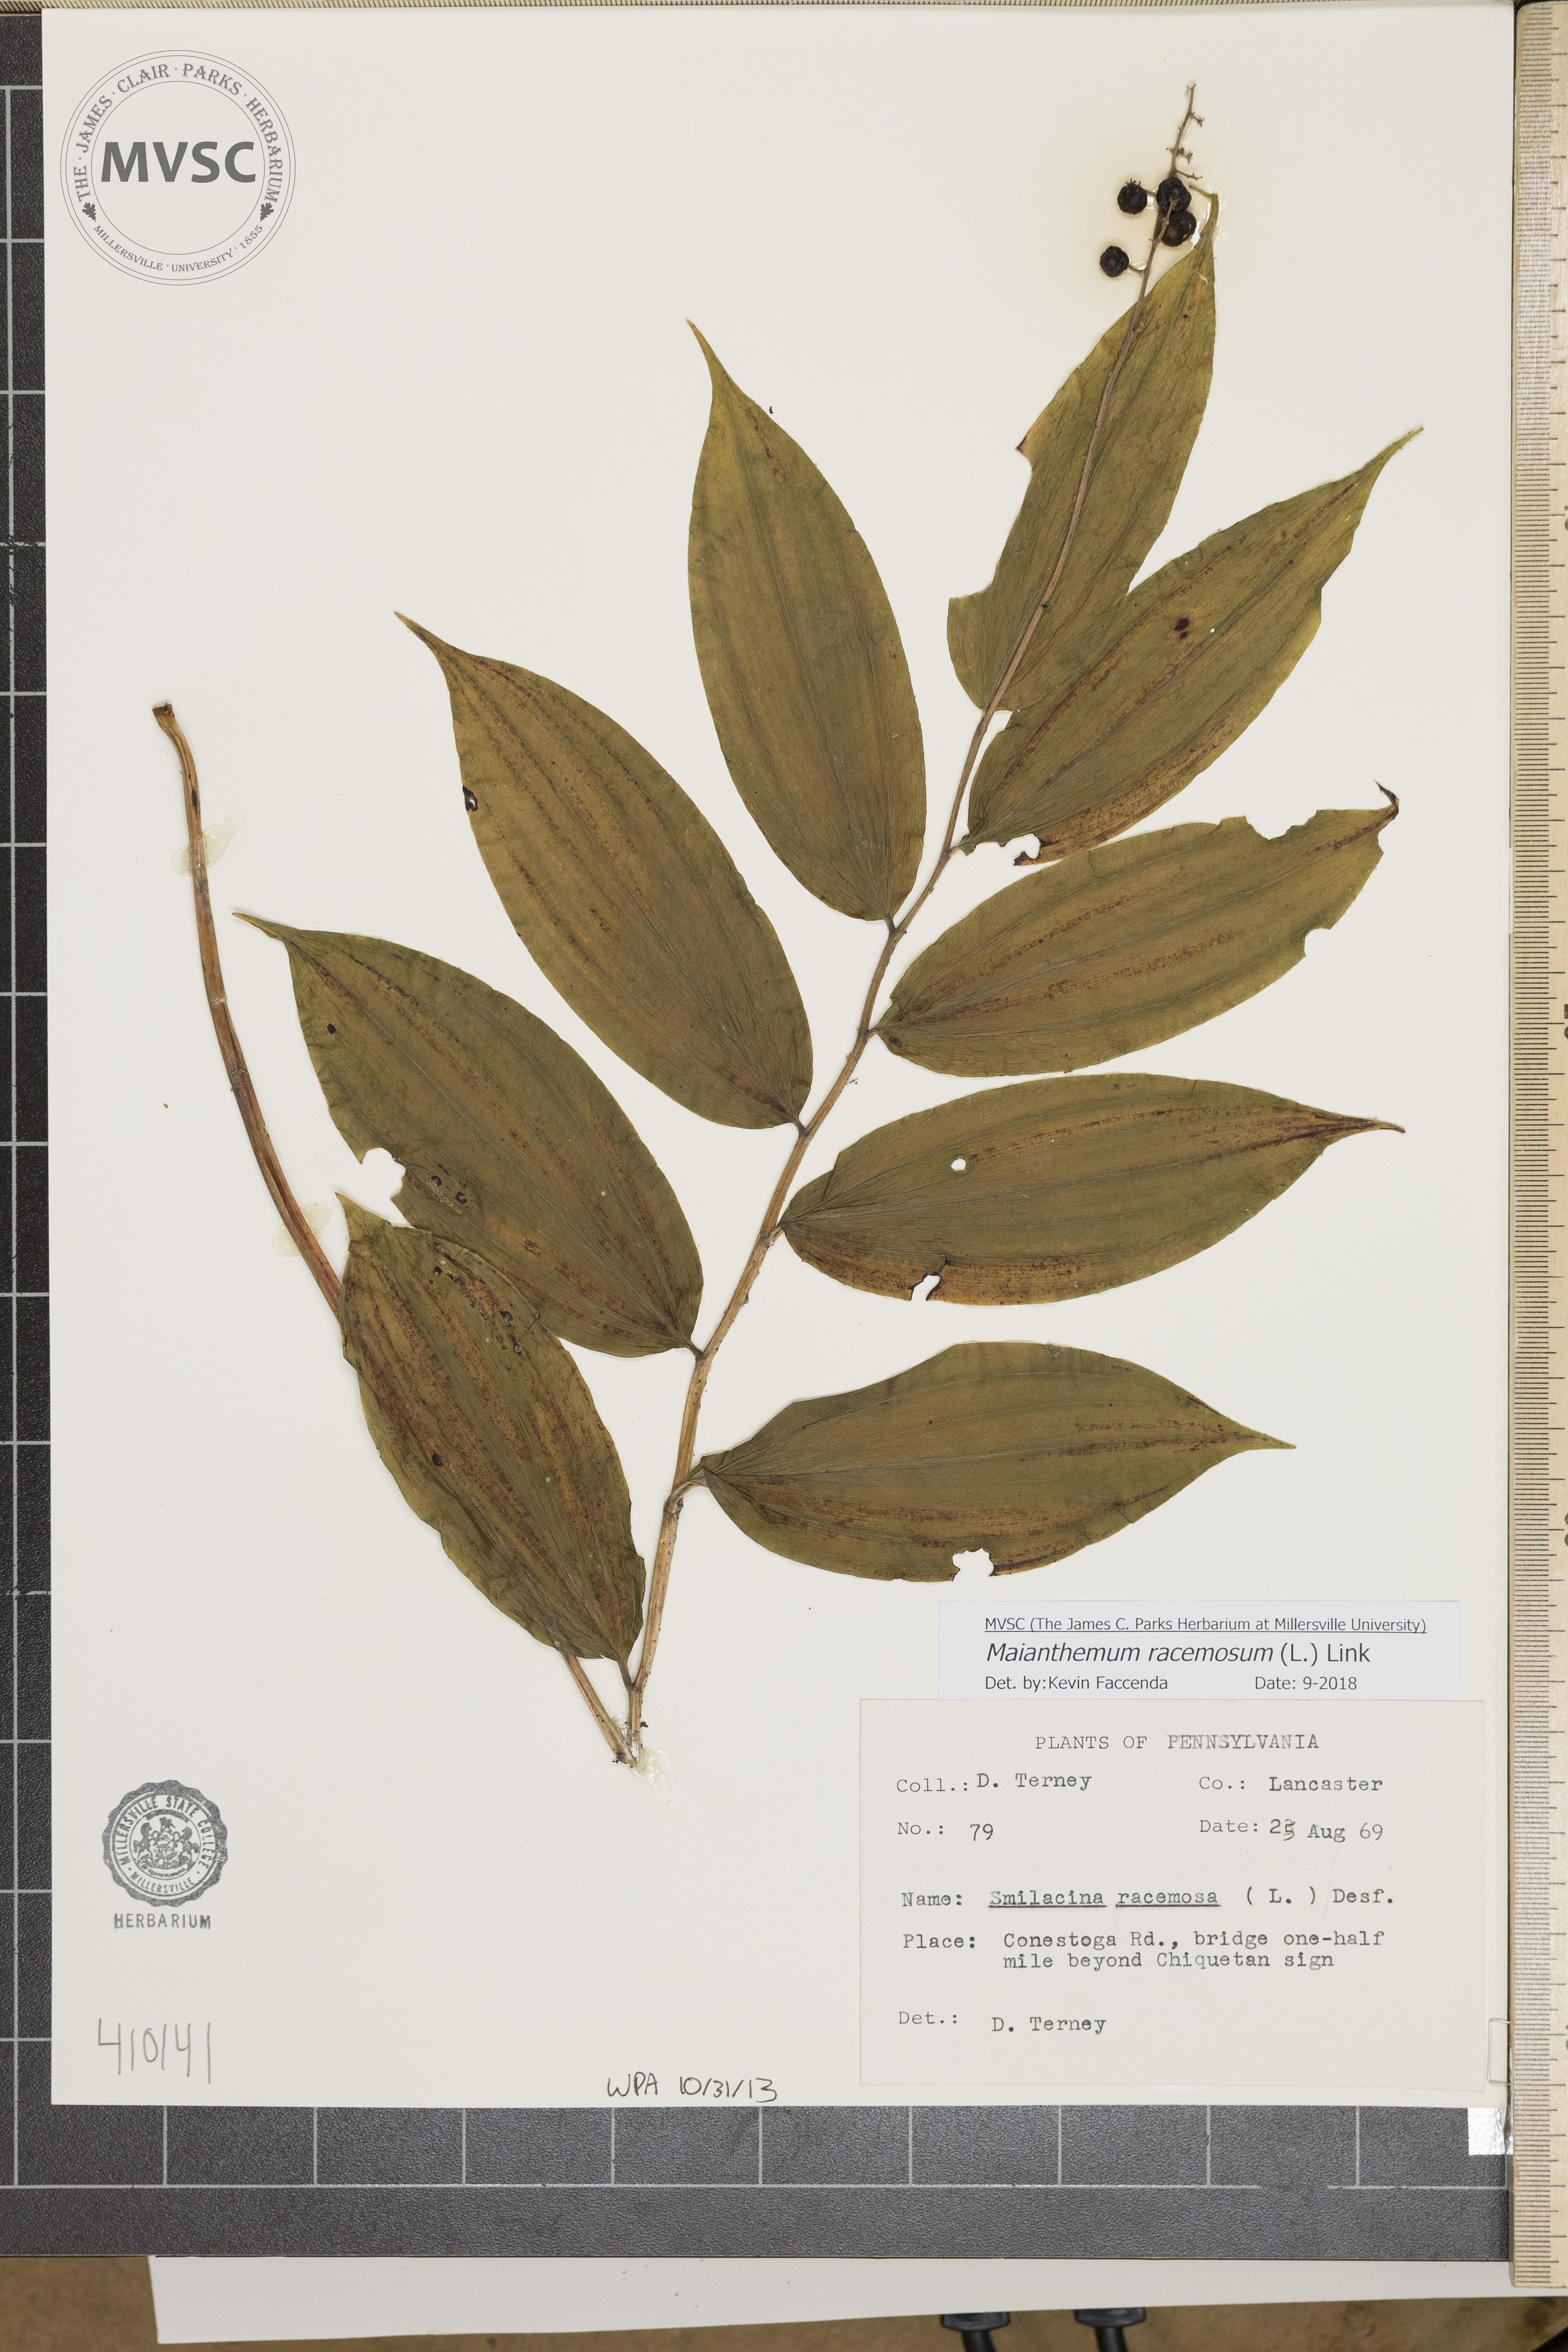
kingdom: Plantae
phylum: Tracheophyta
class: Liliopsida
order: Asparagales
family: Asparagaceae
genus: Maianthemum
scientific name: Maianthemum racemosum
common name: False spikenard
